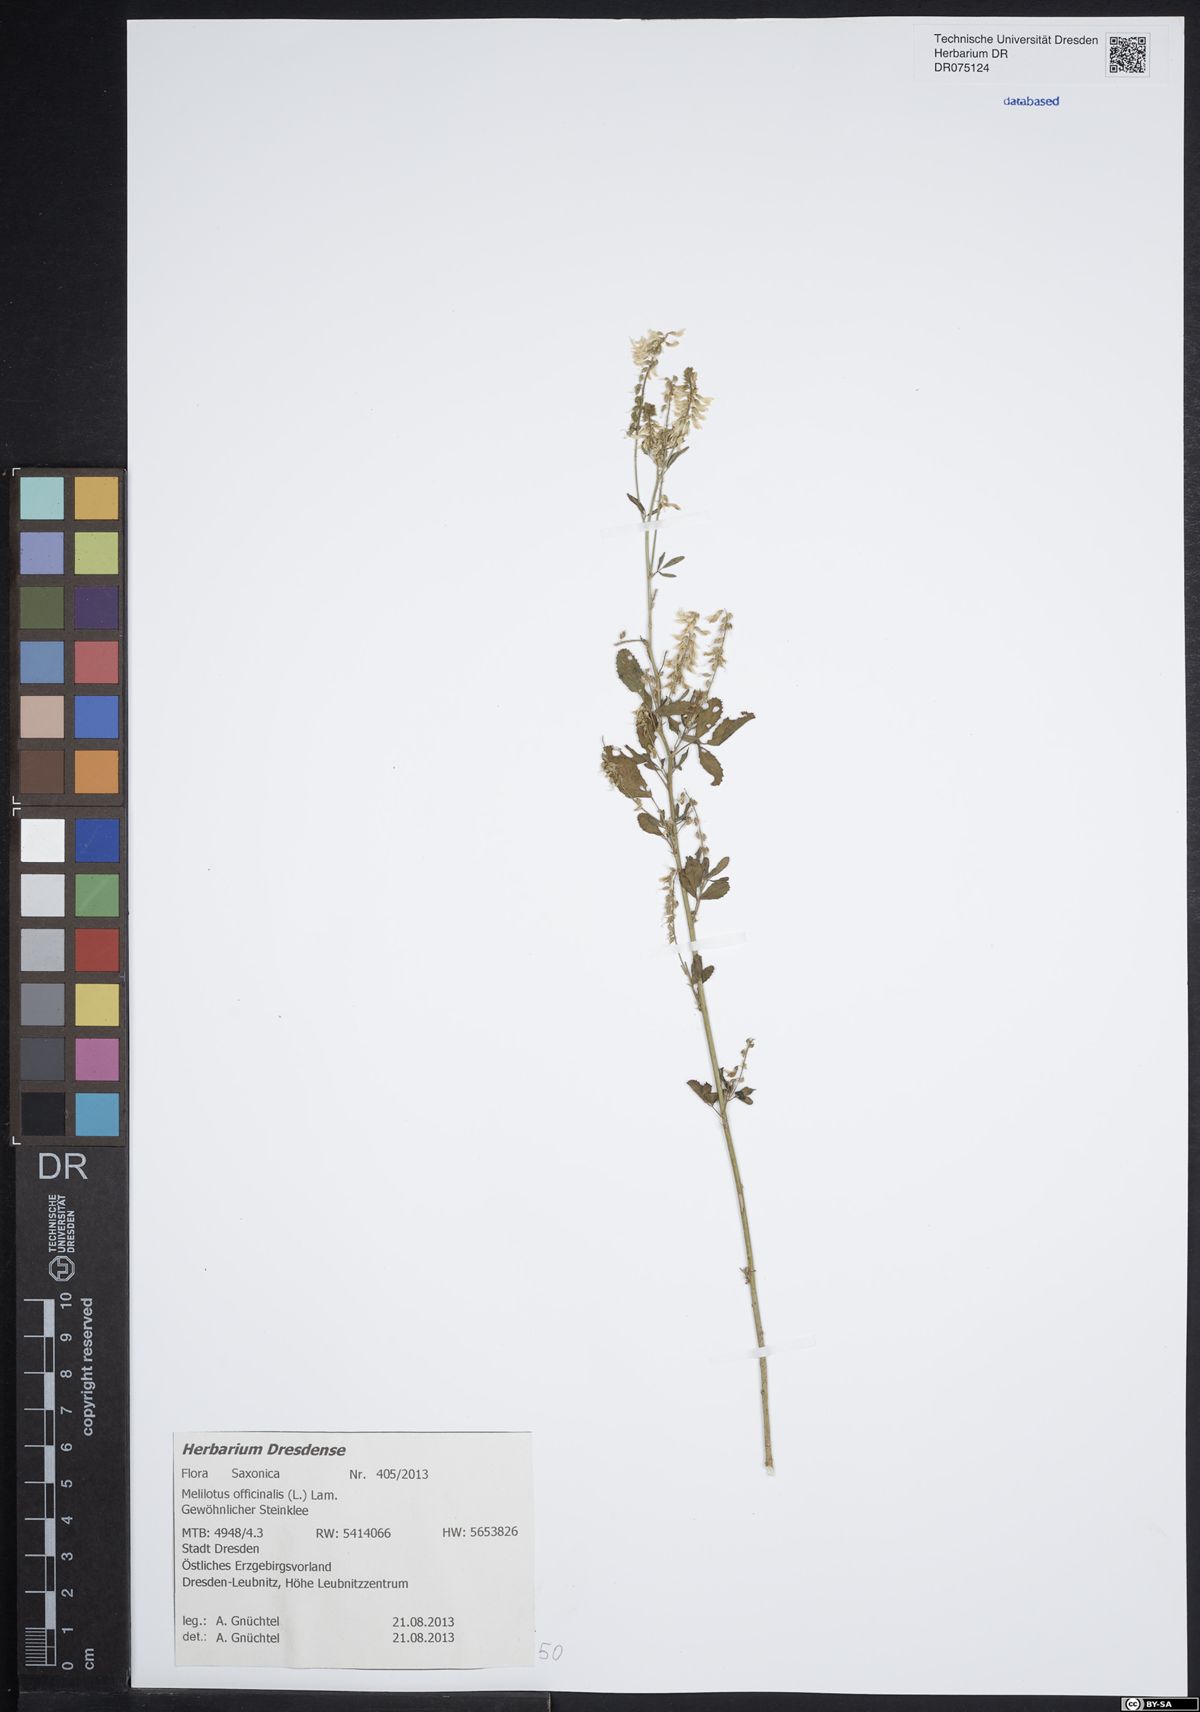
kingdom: Plantae
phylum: Tracheophyta
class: Magnoliopsida
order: Fabales
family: Fabaceae
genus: Melilotus
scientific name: Melilotus officinalis
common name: Sweetclover
